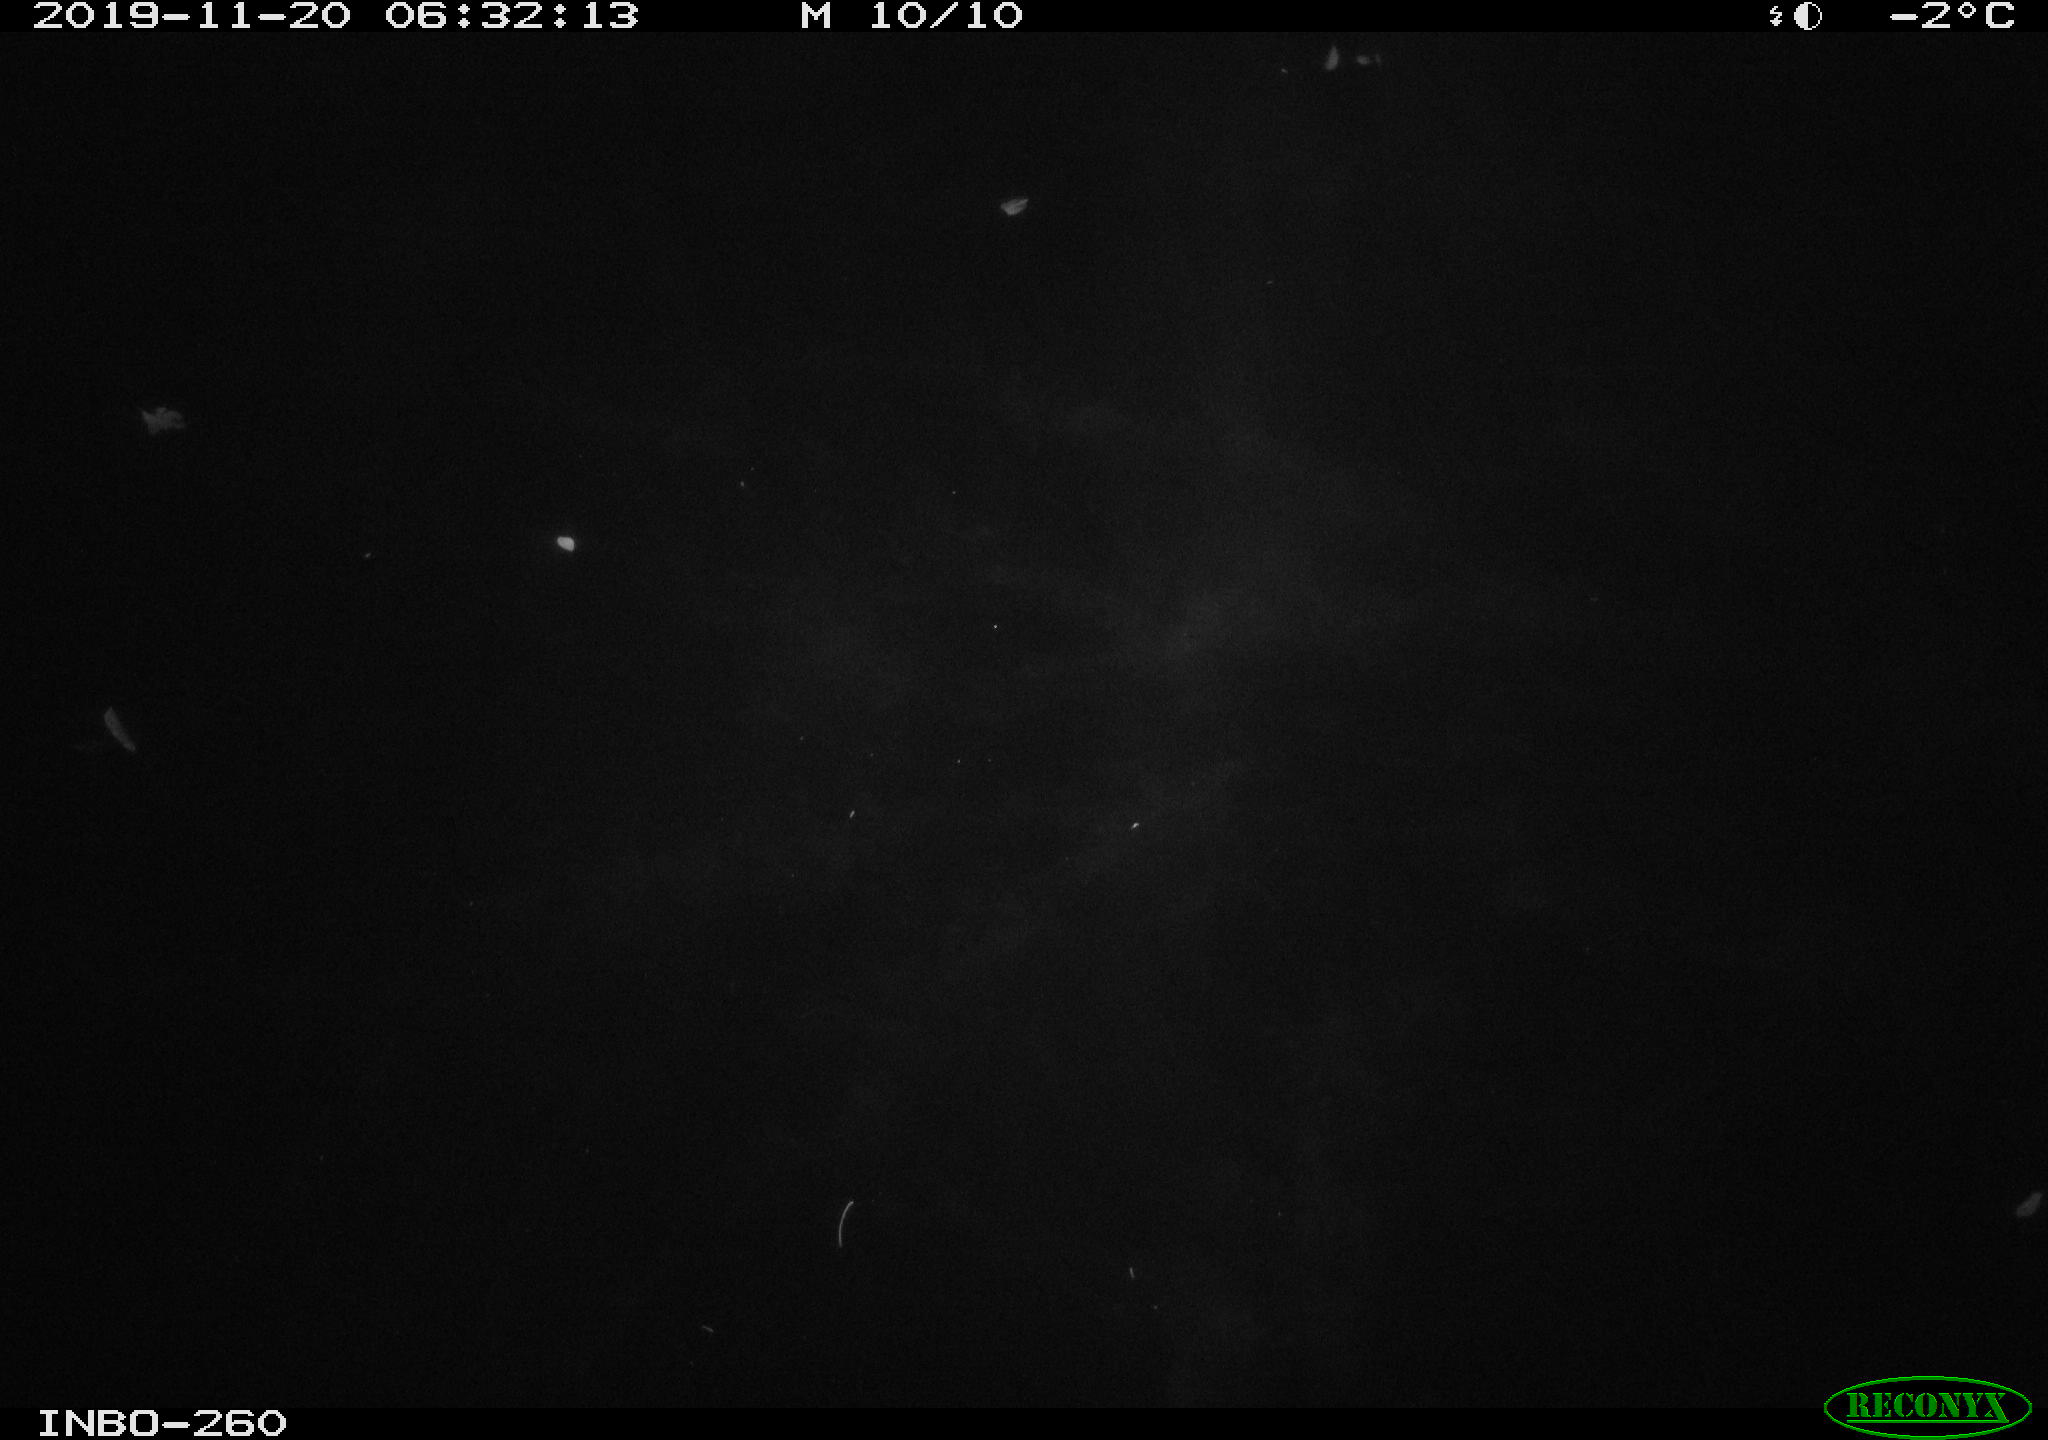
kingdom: Animalia
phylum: Chordata
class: Aves
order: Anseriformes
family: Anatidae
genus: Anas
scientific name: Anas platyrhynchos
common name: Mallard
